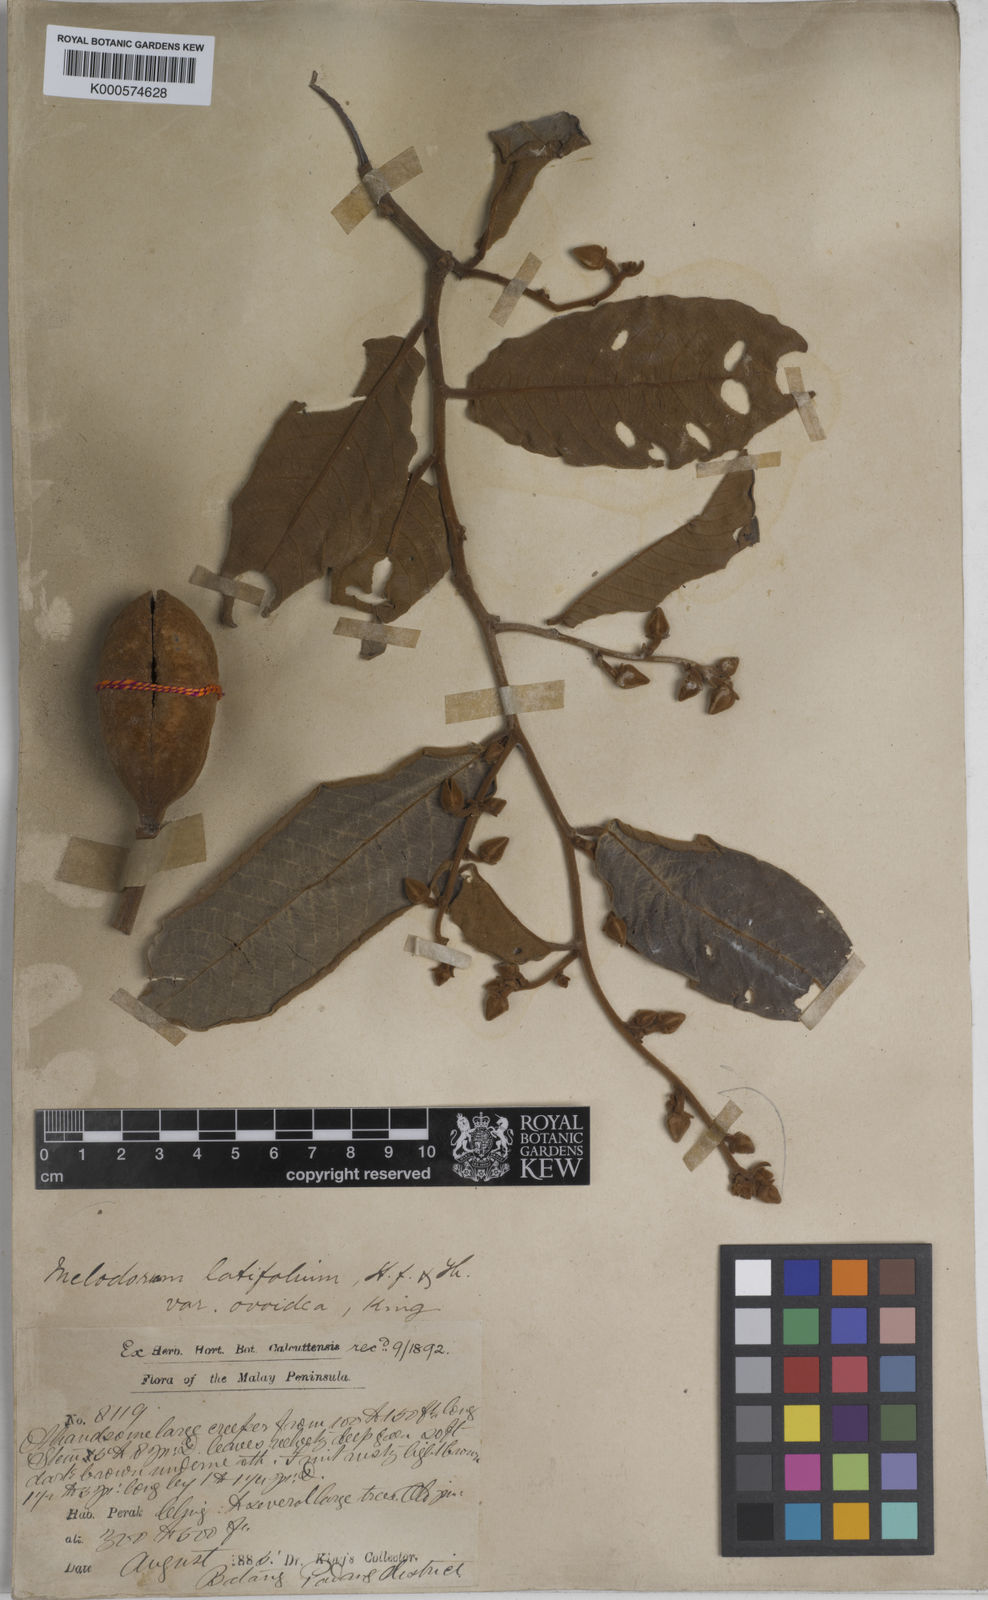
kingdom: Plantae
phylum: Tracheophyta
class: Magnoliopsida
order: Magnoliales
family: Annonaceae
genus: Fissistigma
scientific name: Fissistigma latifolium
